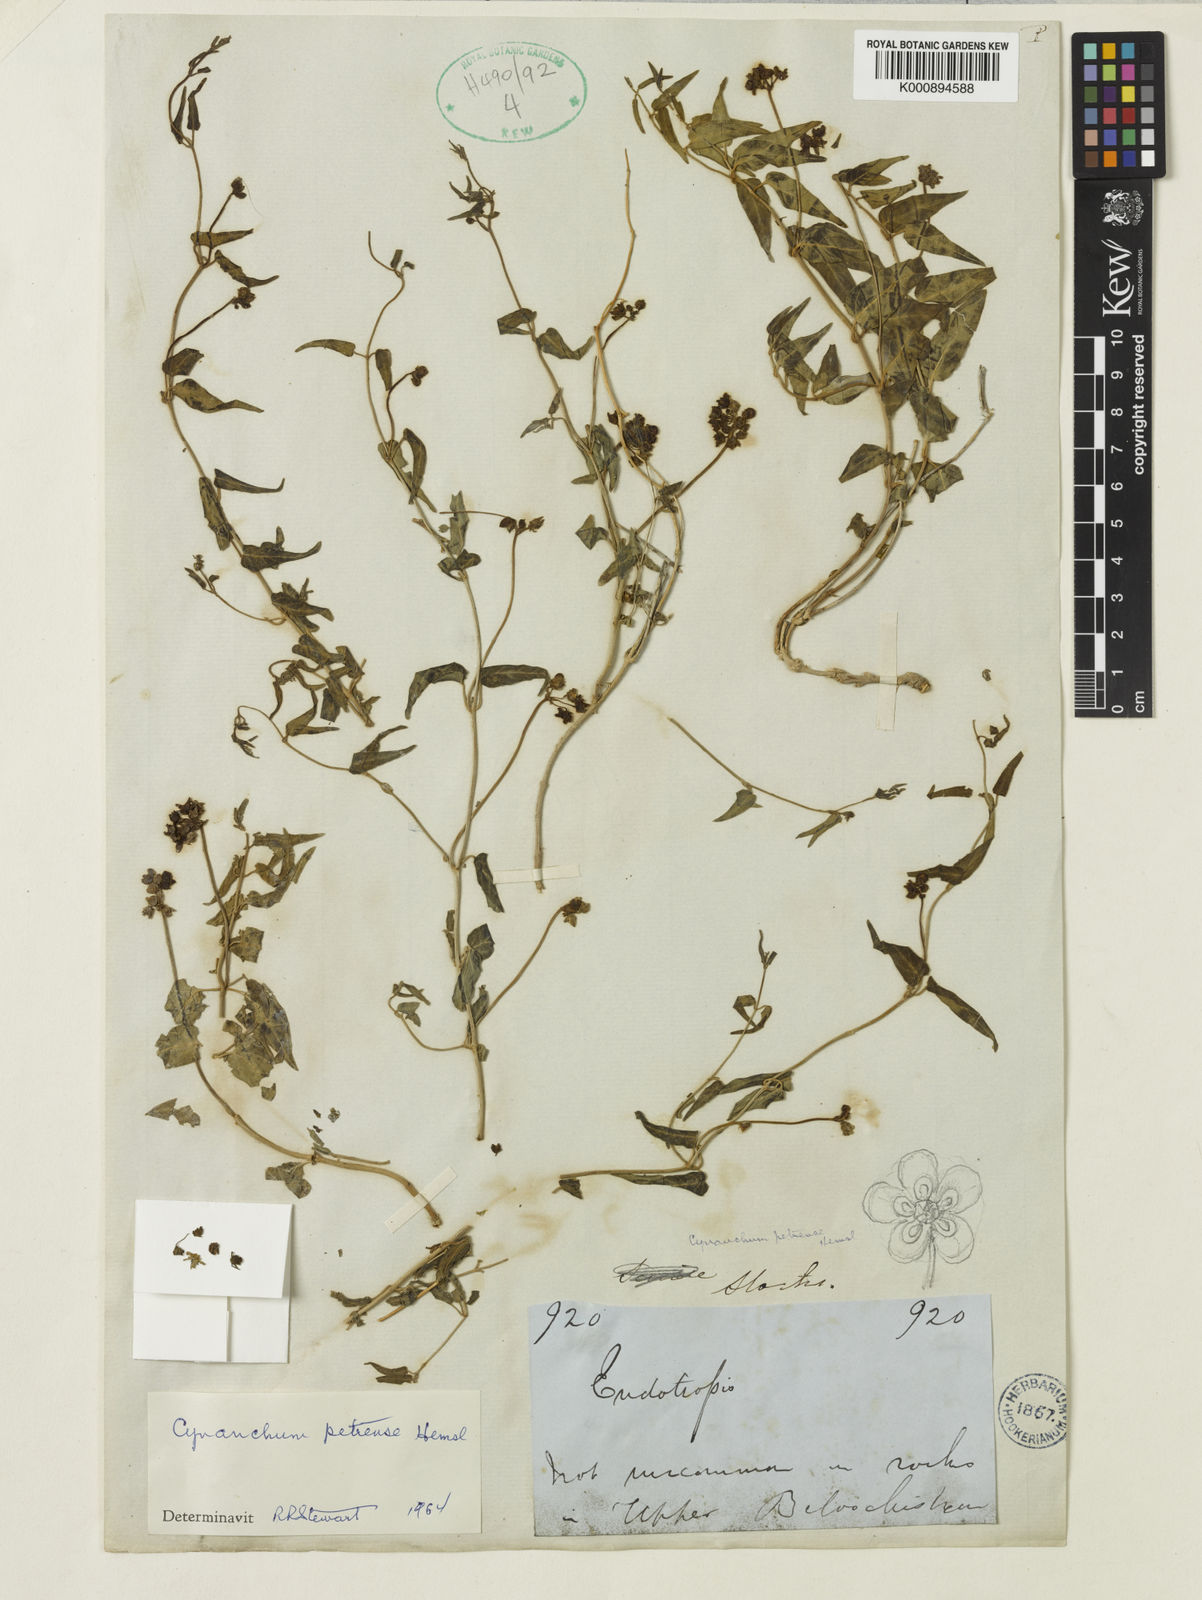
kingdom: Plantae
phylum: Tracheophyta
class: Magnoliopsida
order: Gentianales
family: Apocynaceae
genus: Vincetoxicum
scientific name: Vincetoxicum petrense
